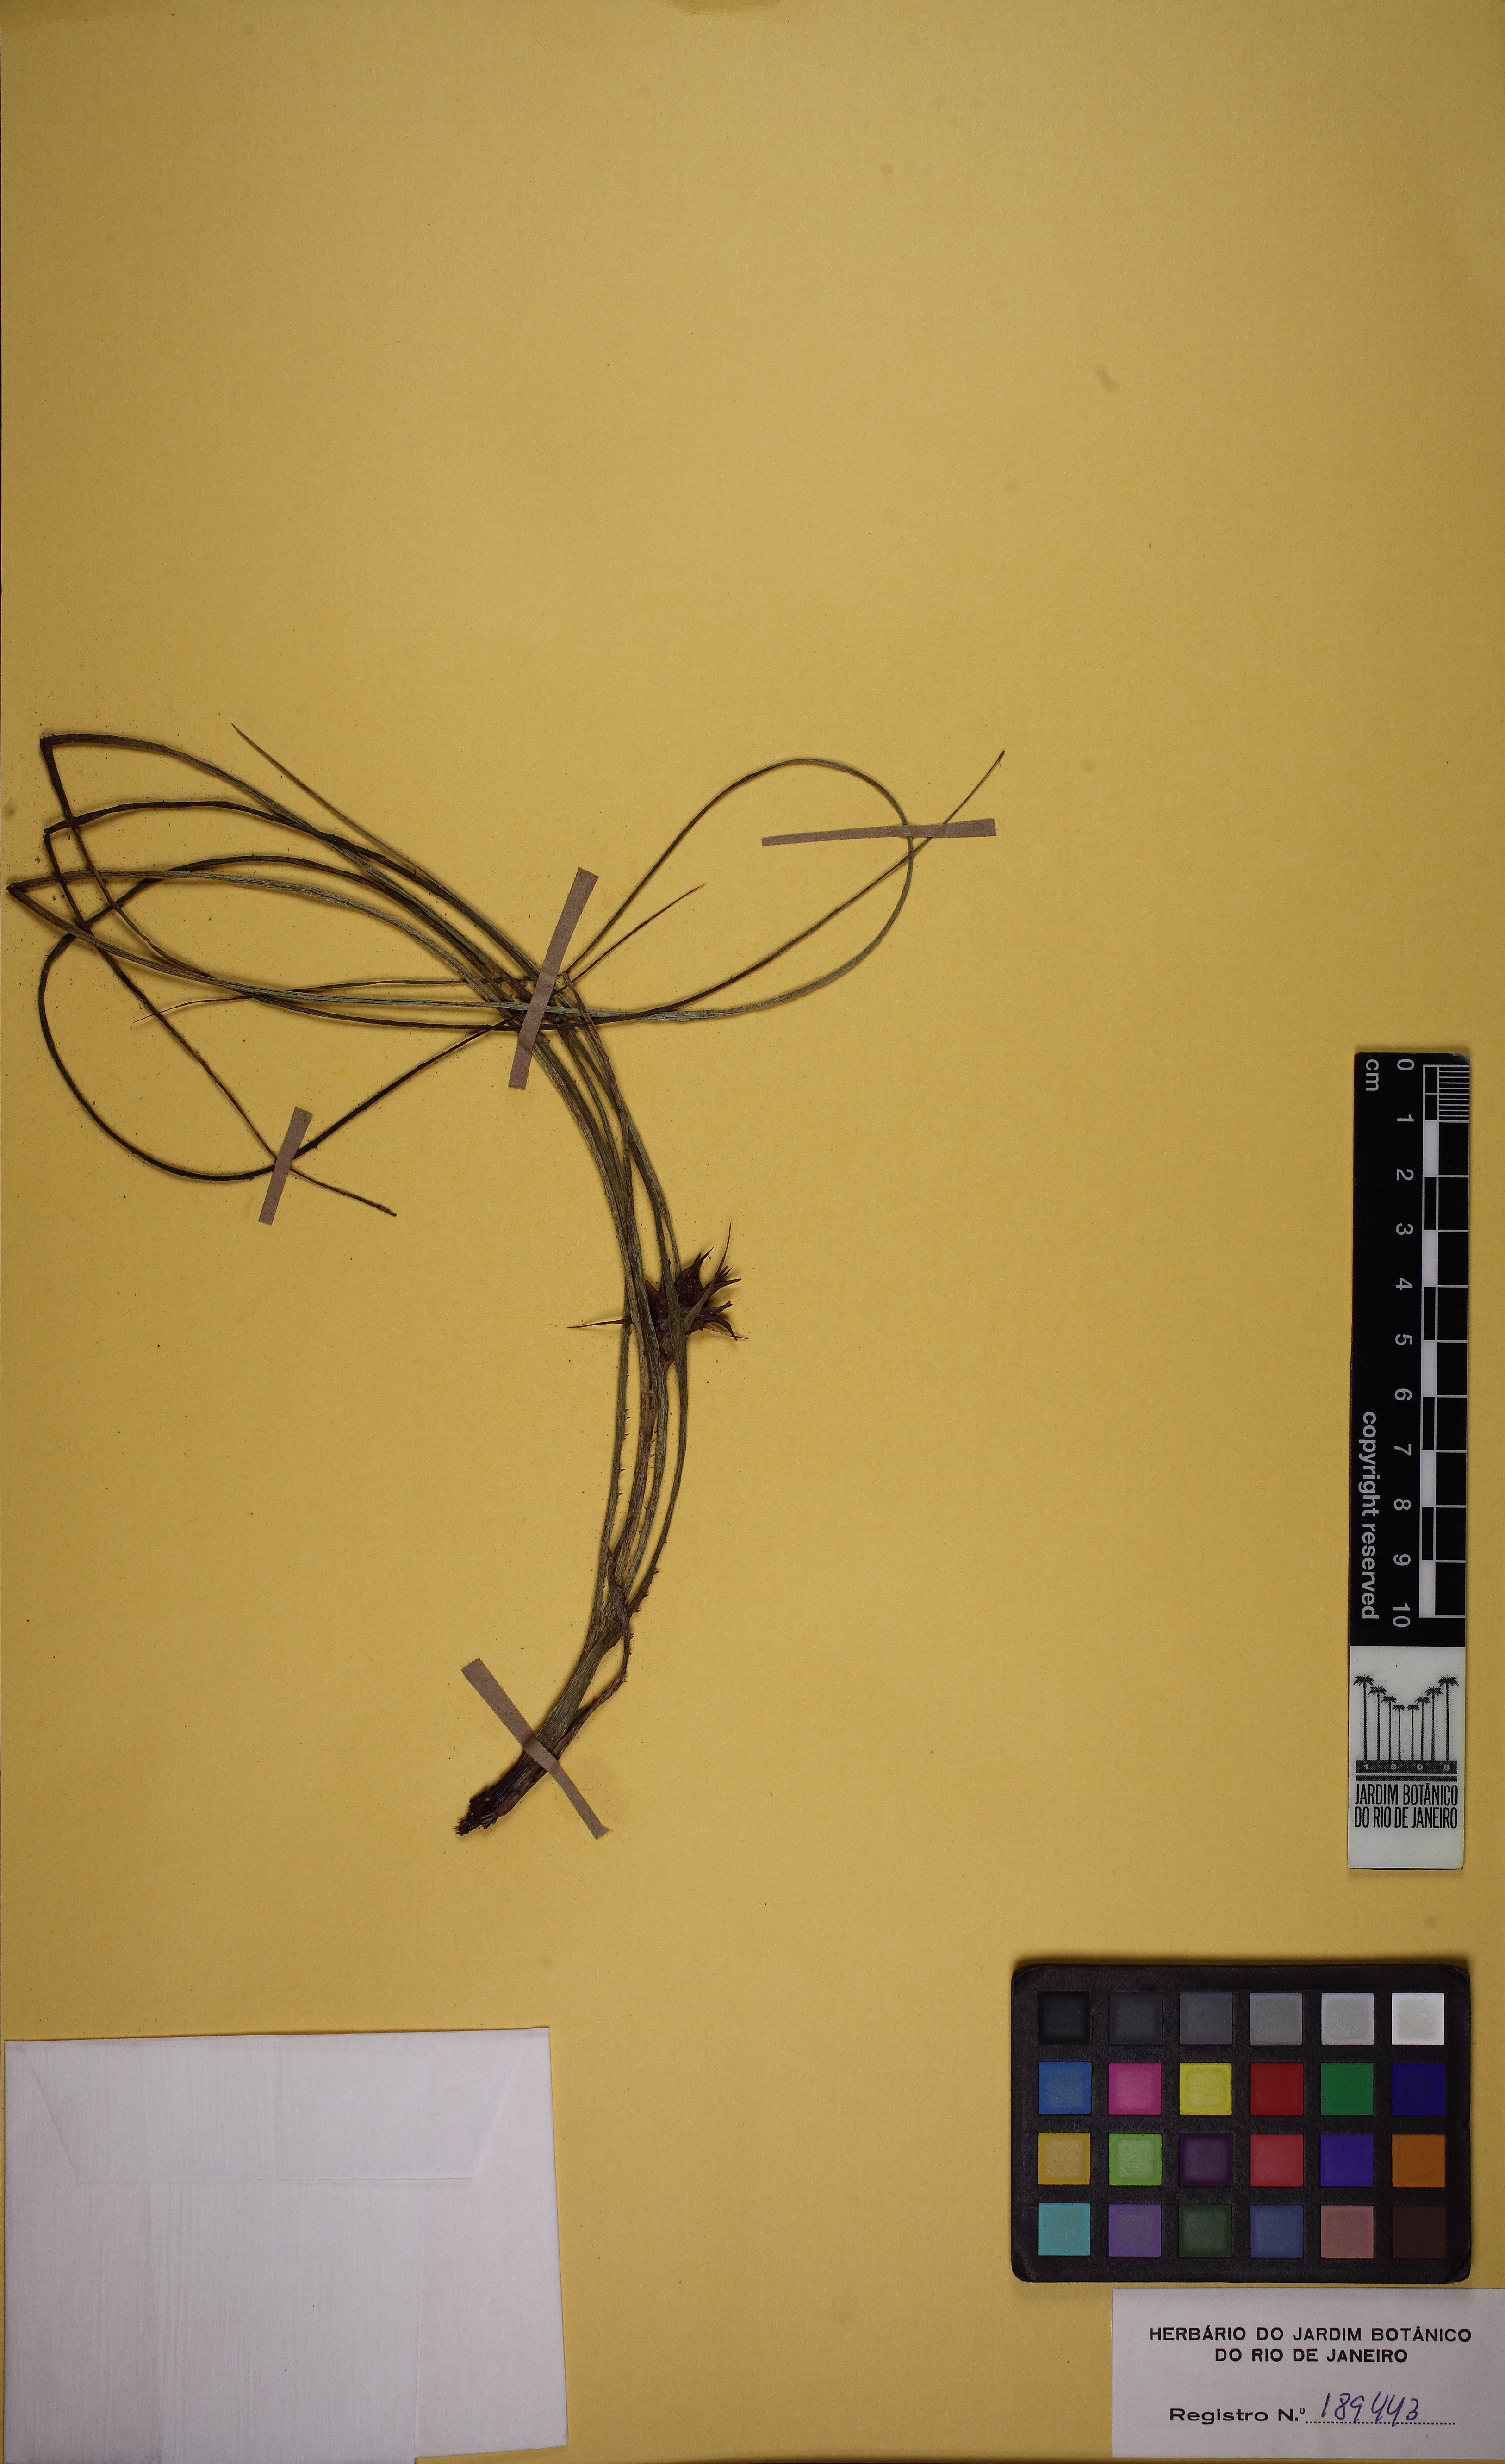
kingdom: Plantae
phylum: Tracheophyta
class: Liliopsida
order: Poales
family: Bromeliaceae
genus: Acanthostachys
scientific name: Acanthostachys strobilacea
